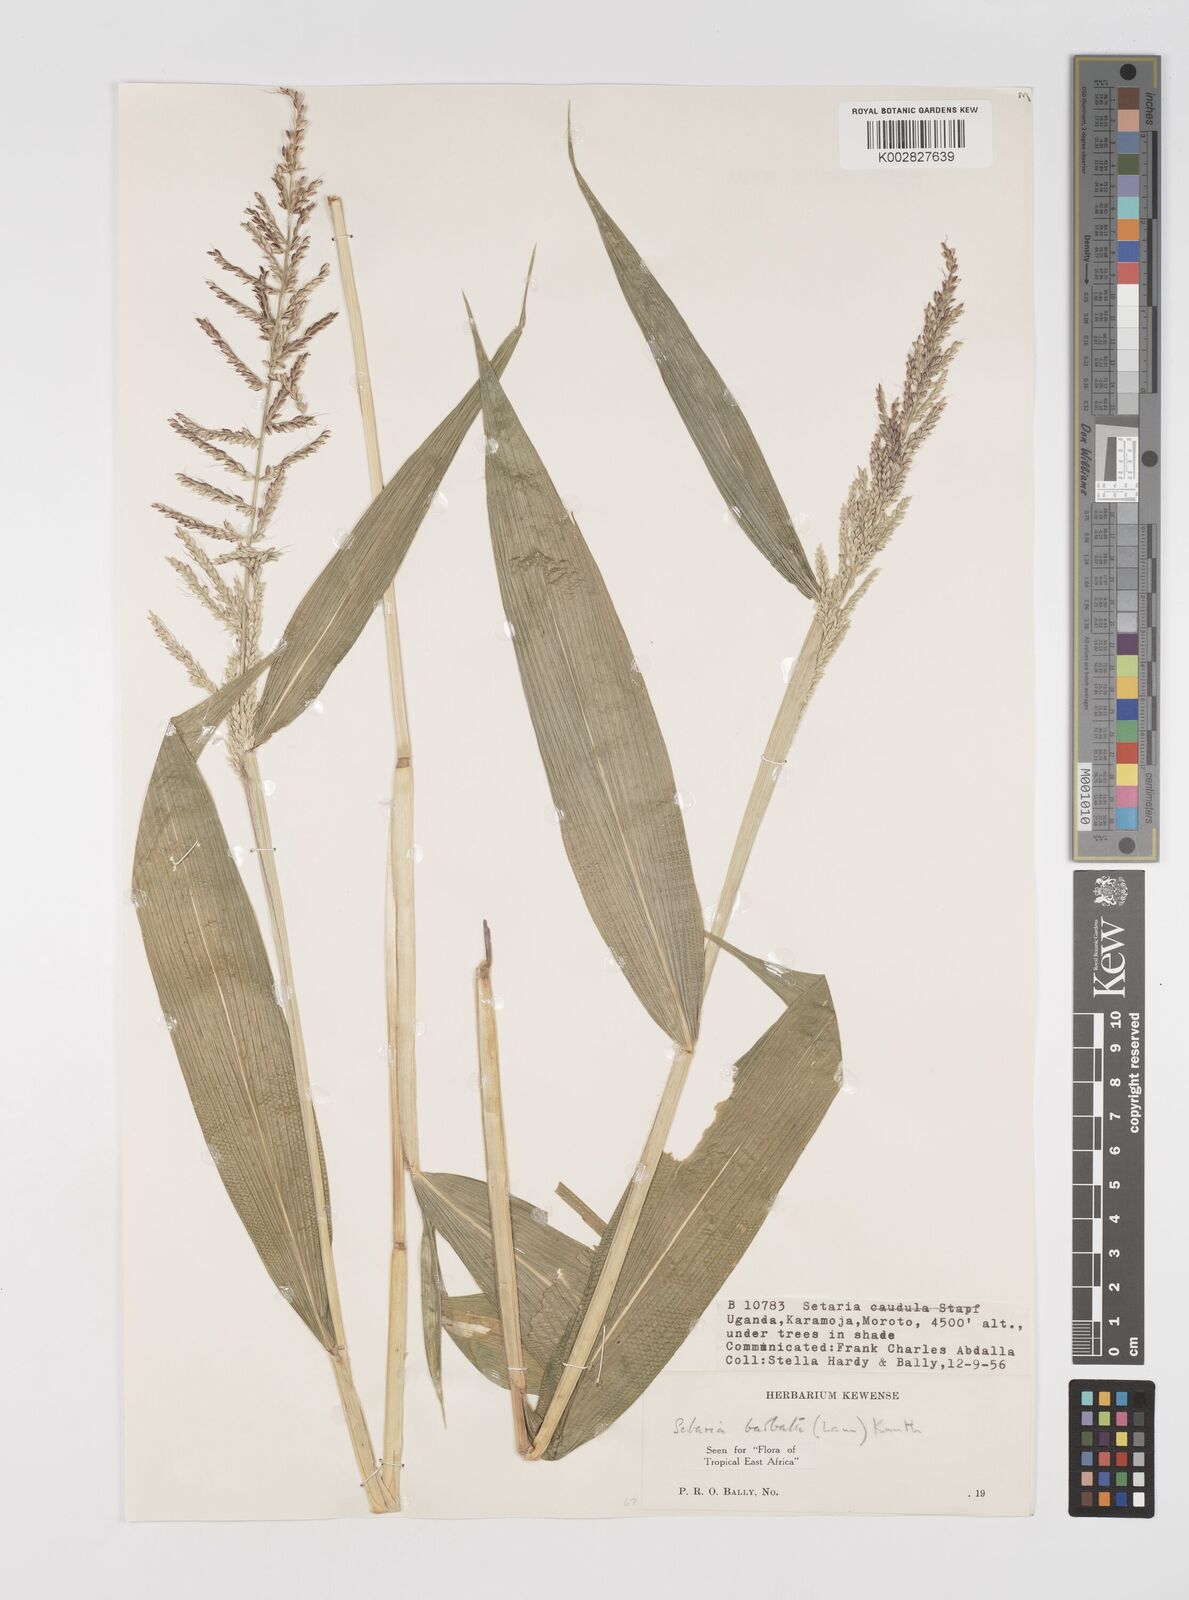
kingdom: Plantae
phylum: Tracheophyta
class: Liliopsida
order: Poales
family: Poaceae
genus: Setaria
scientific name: Setaria barbata
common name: East indian bristlegrass
